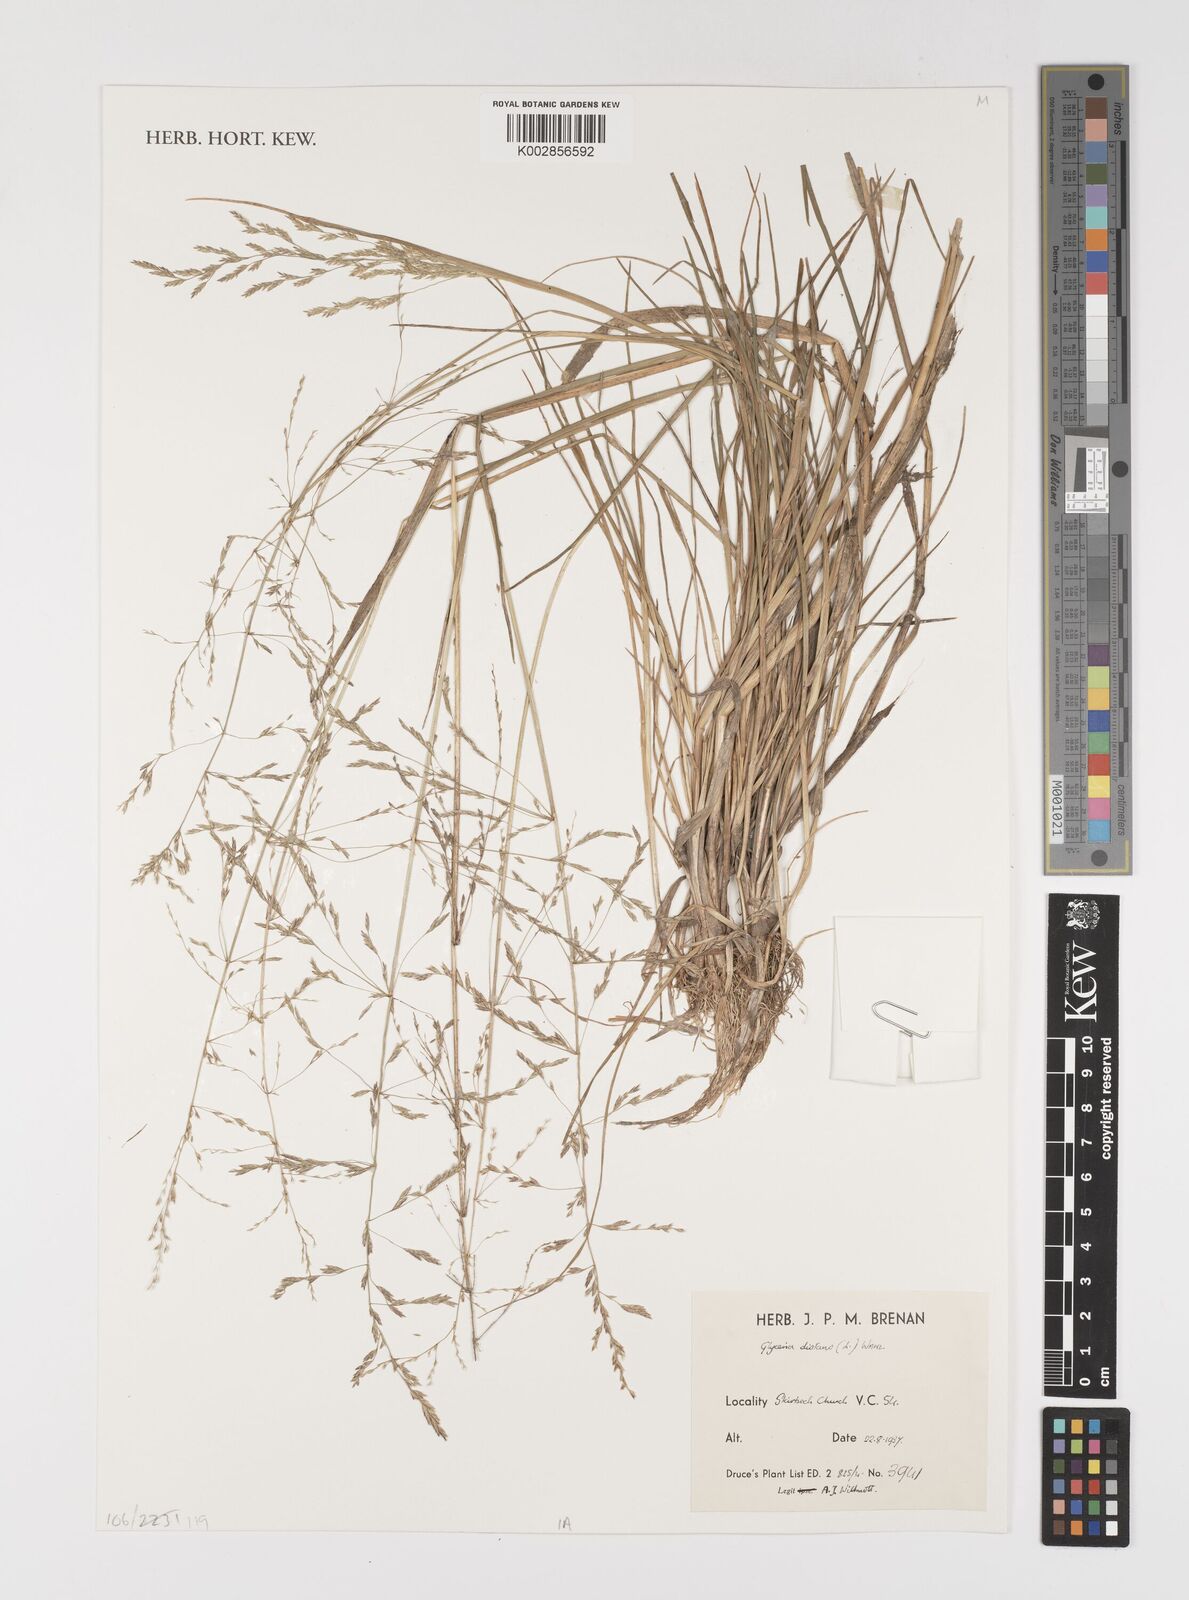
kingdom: Plantae
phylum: Tracheophyta
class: Liliopsida
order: Poales
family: Poaceae
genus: Puccinellia
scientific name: Puccinellia distans
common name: Weeping alkaligrass
